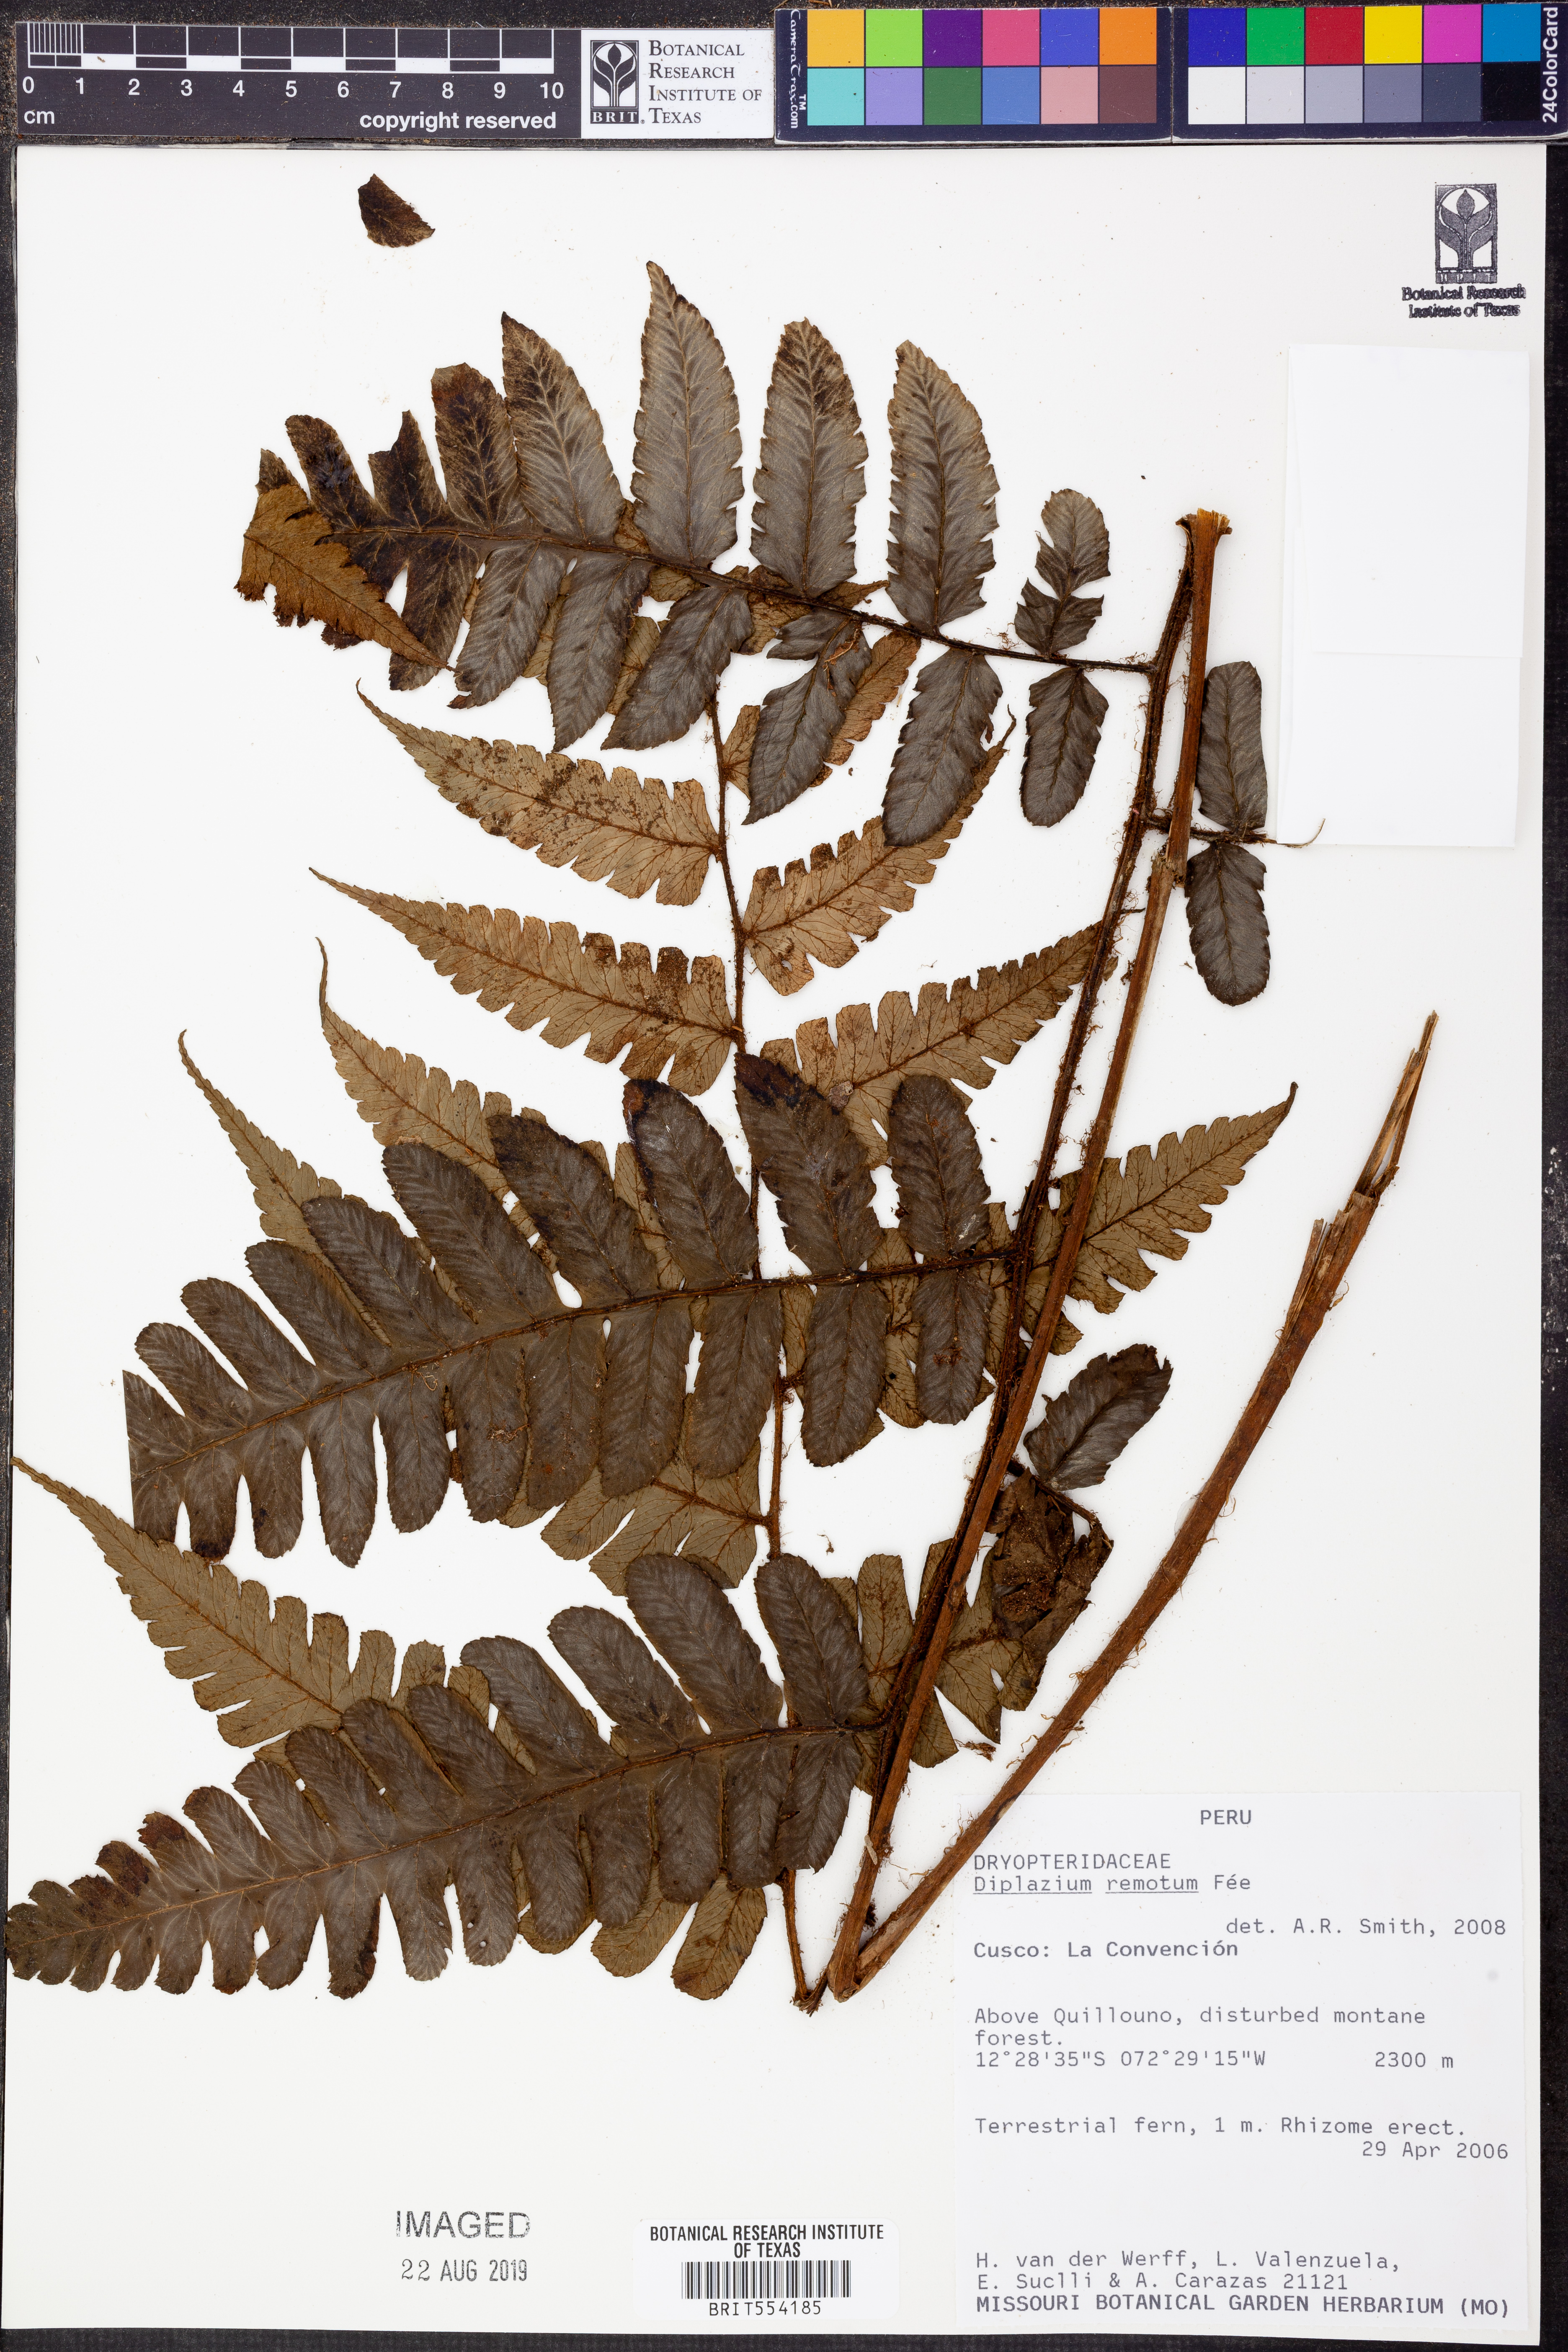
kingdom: Plantae
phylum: Tracheophyta
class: Polypodiopsida
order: Polypodiales
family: Athyriaceae
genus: Diplazium
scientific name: Diplazium rostratum
